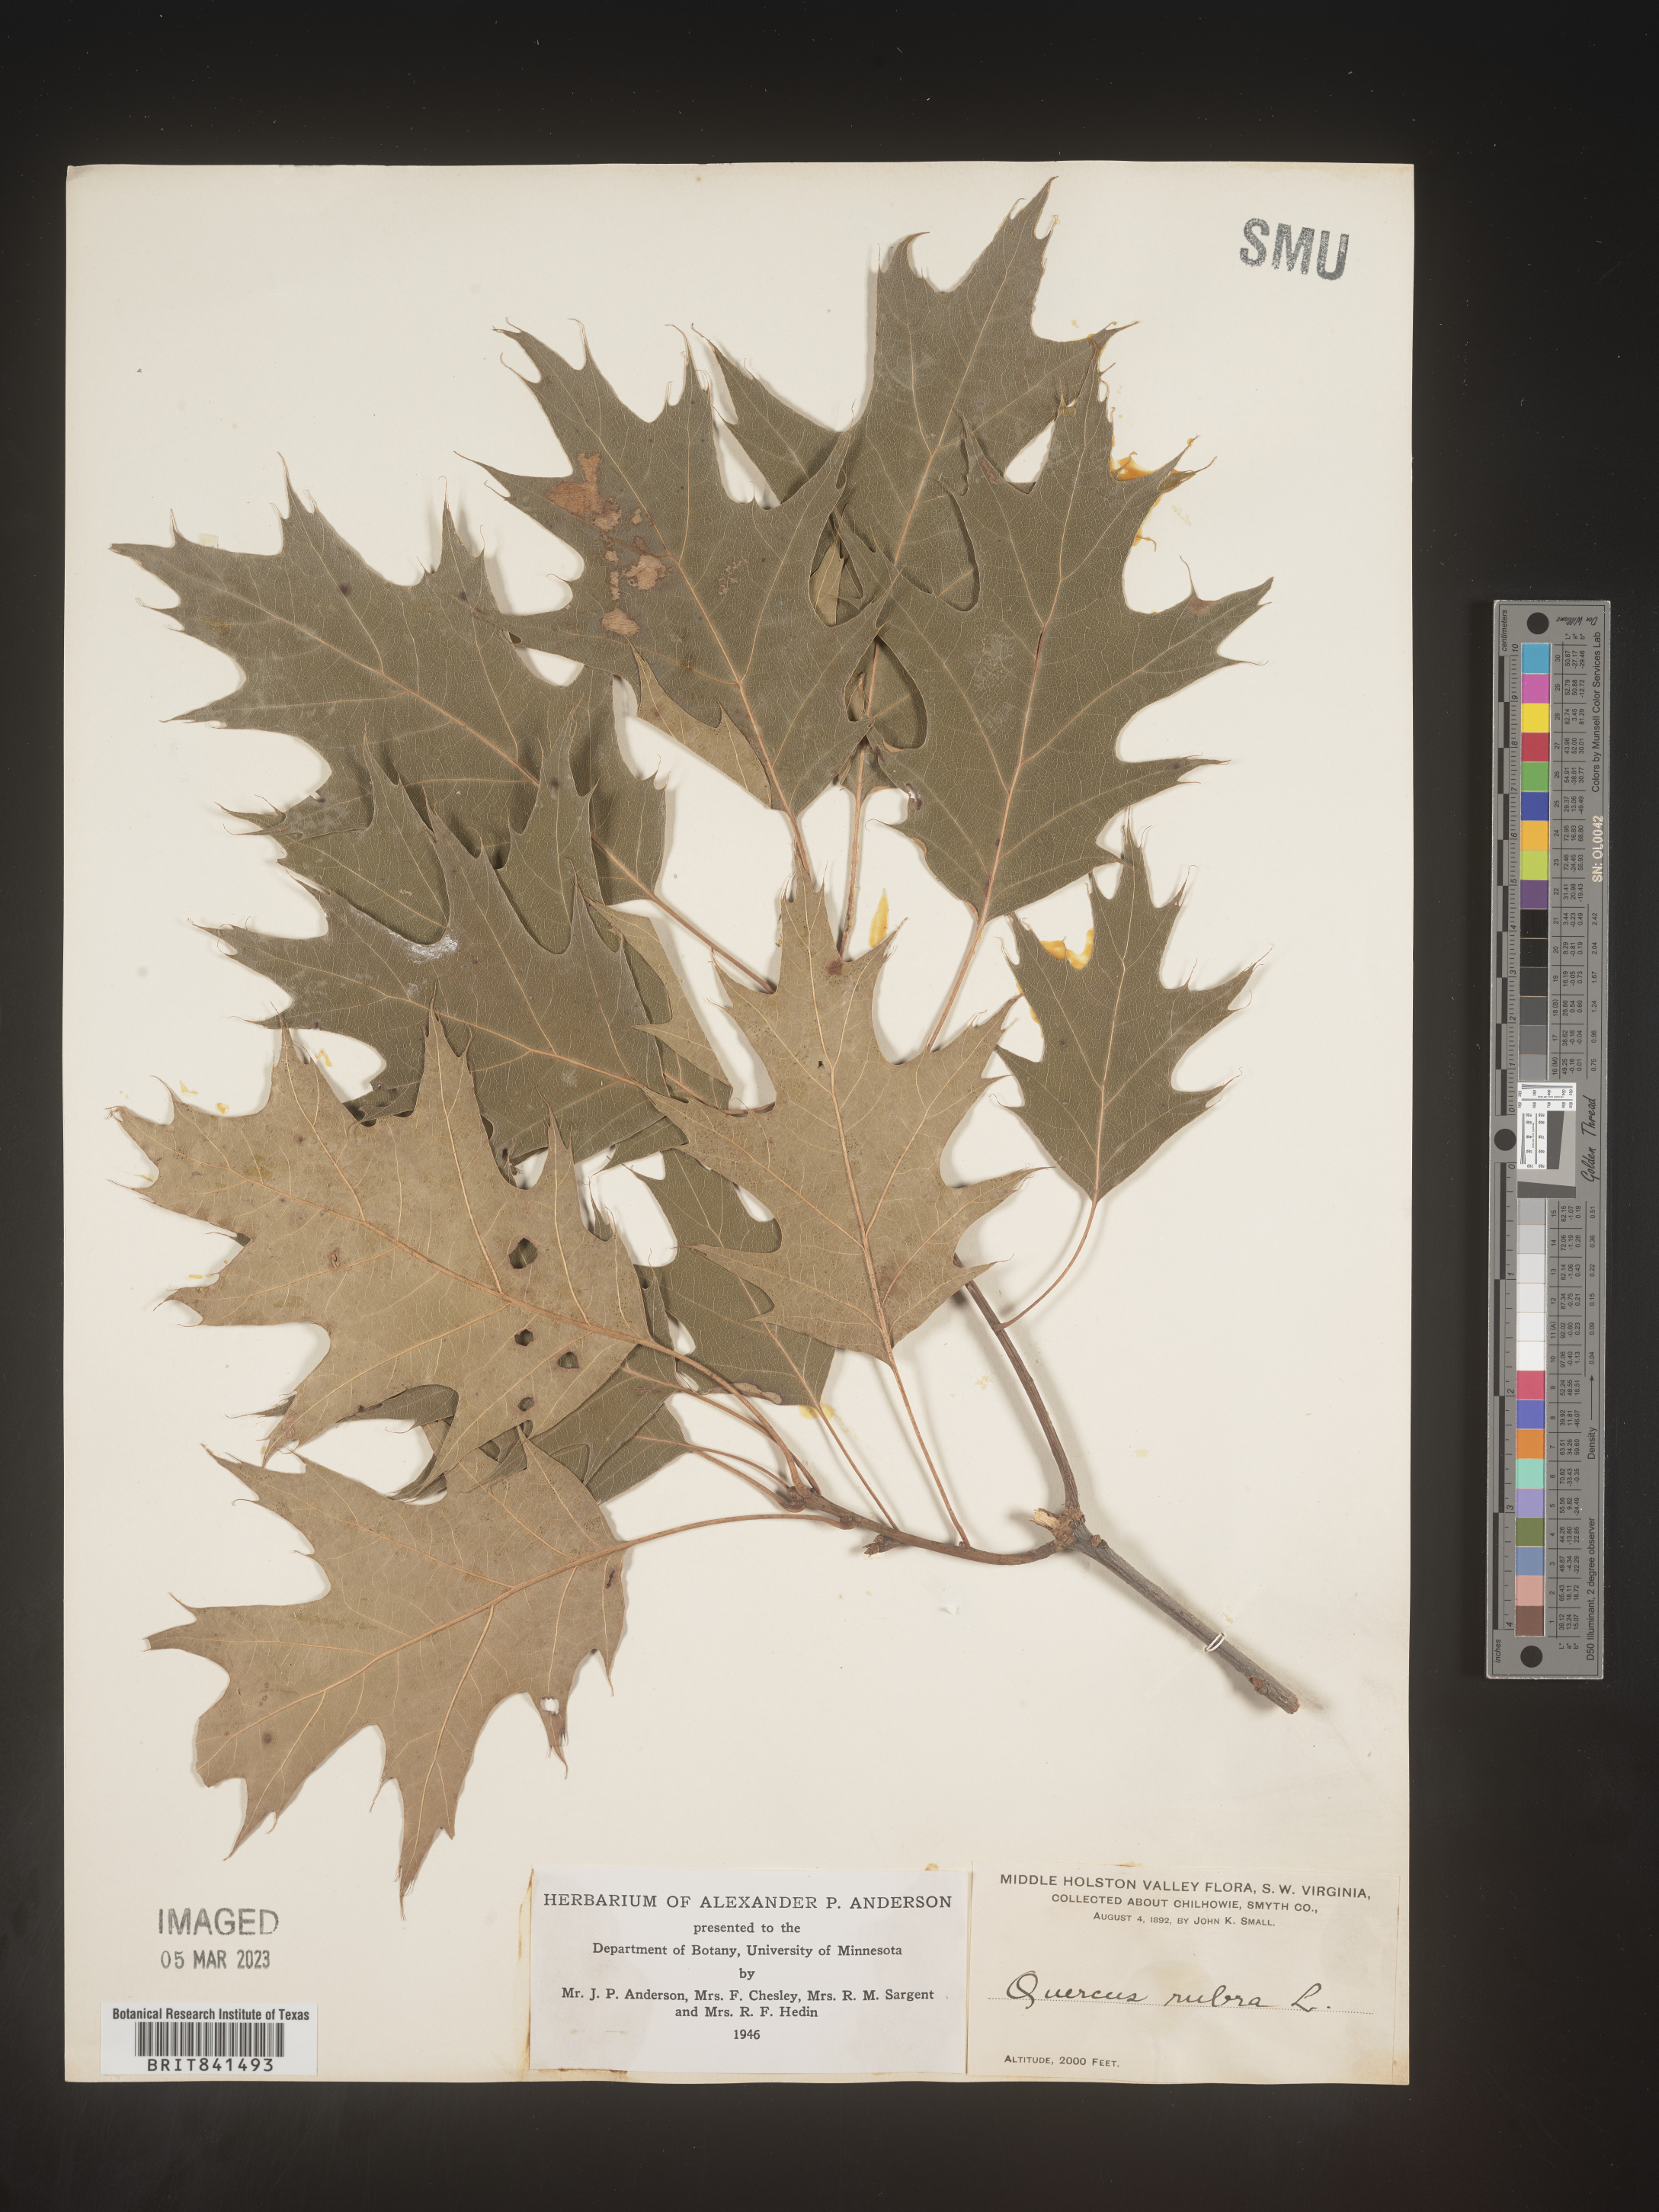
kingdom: Plantae
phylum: Tracheophyta
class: Magnoliopsida
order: Fagales
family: Fagaceae
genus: Quercus
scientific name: Quercus rubra
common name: Red oak
